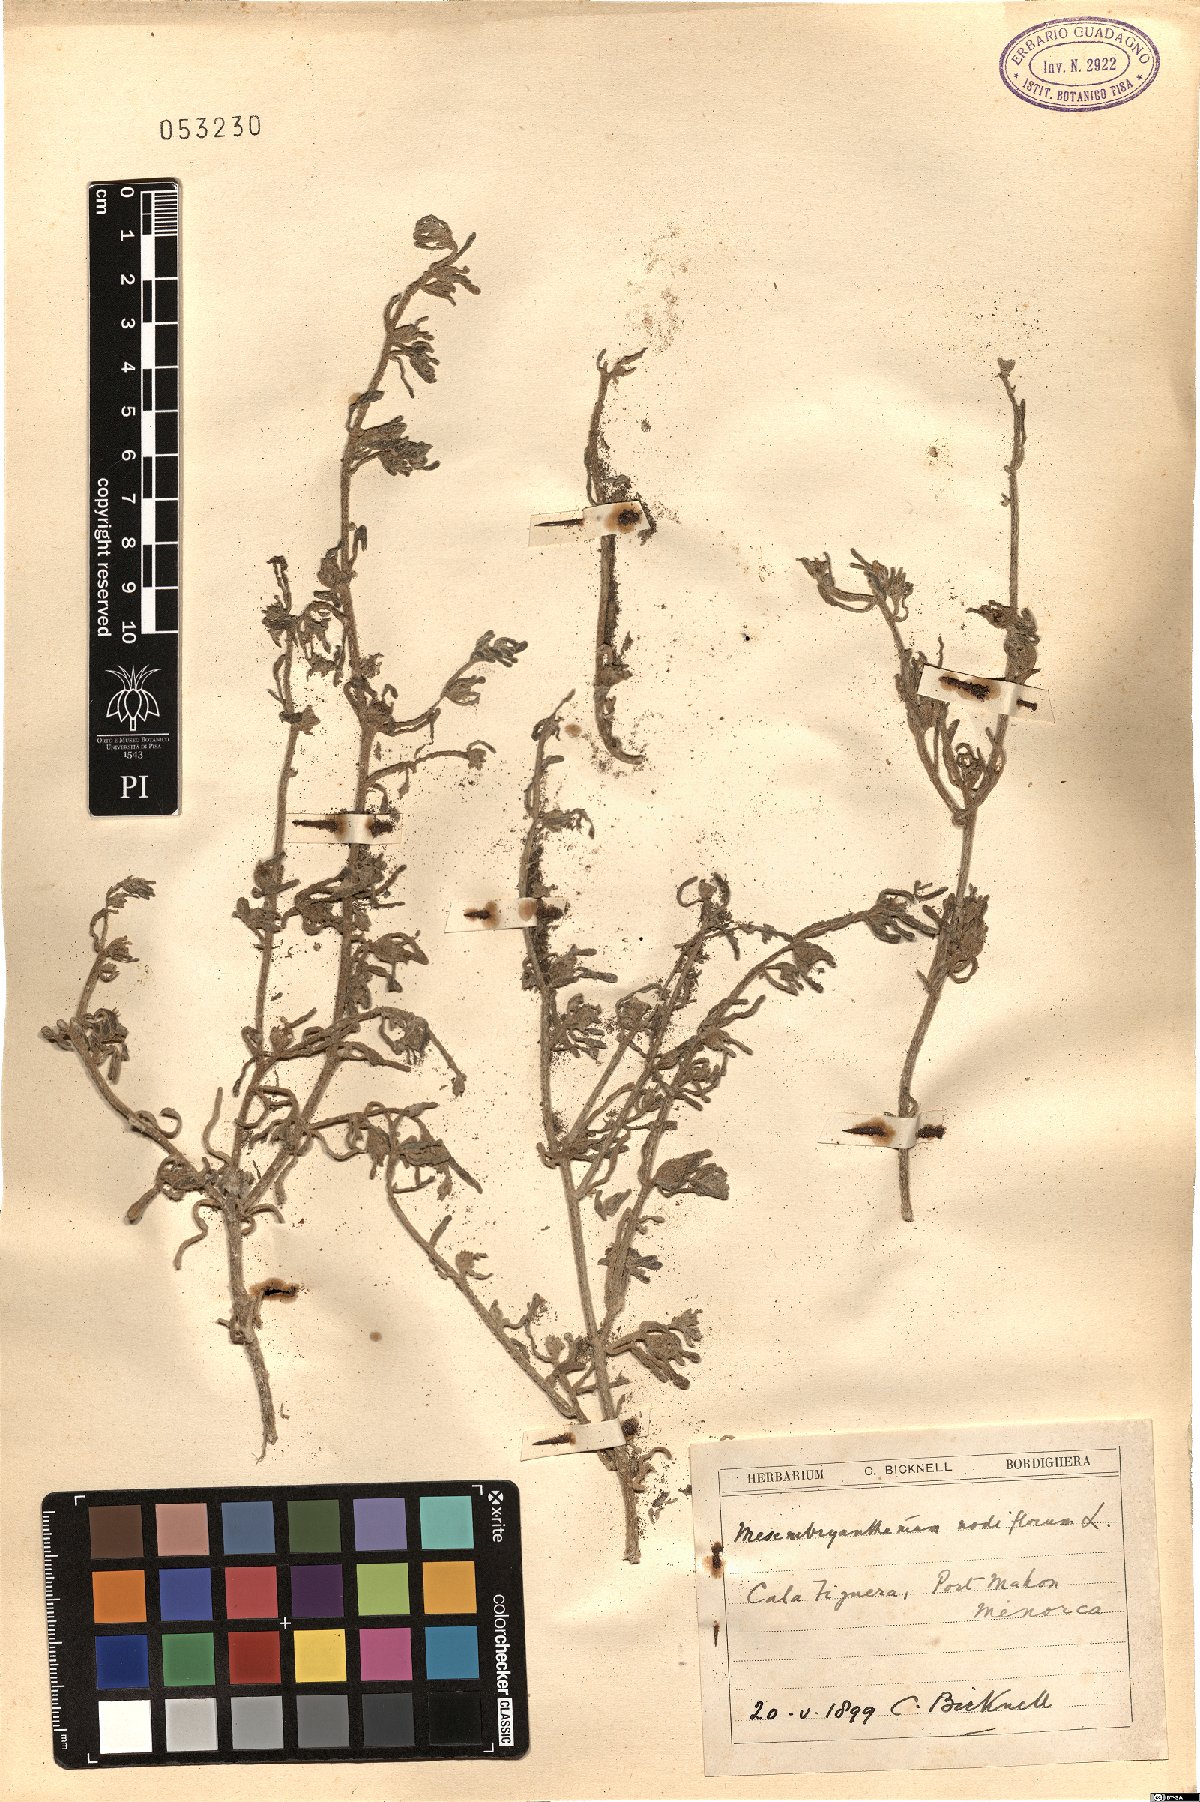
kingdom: Plantae
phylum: Tracheophyta
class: Magnoliopsida
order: Caryophyllales
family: Aizoaceae
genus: Mesembryanthemum
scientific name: Mesembryanthemum nodiflorum
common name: Slenderleaf iceplant
